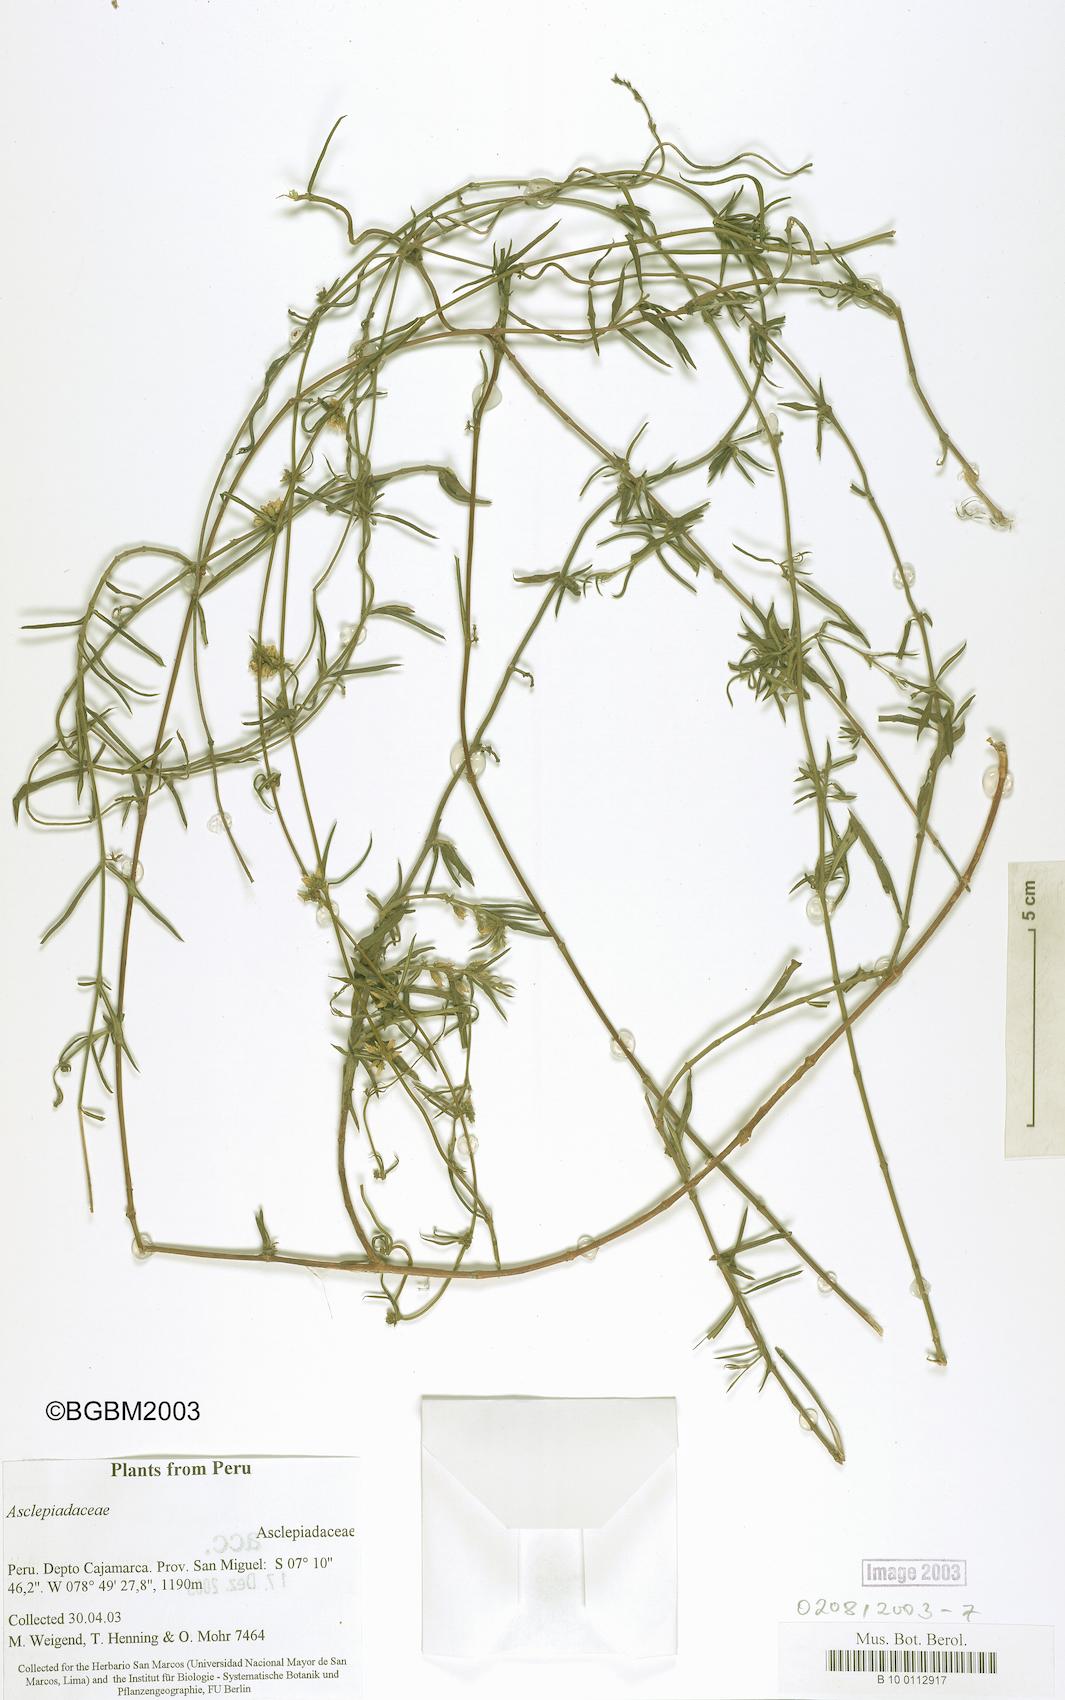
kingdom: Plantae
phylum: Tracheophyta
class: Magnoliopsida
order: Gentianales
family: Apocynaceae
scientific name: Apocynaceae
